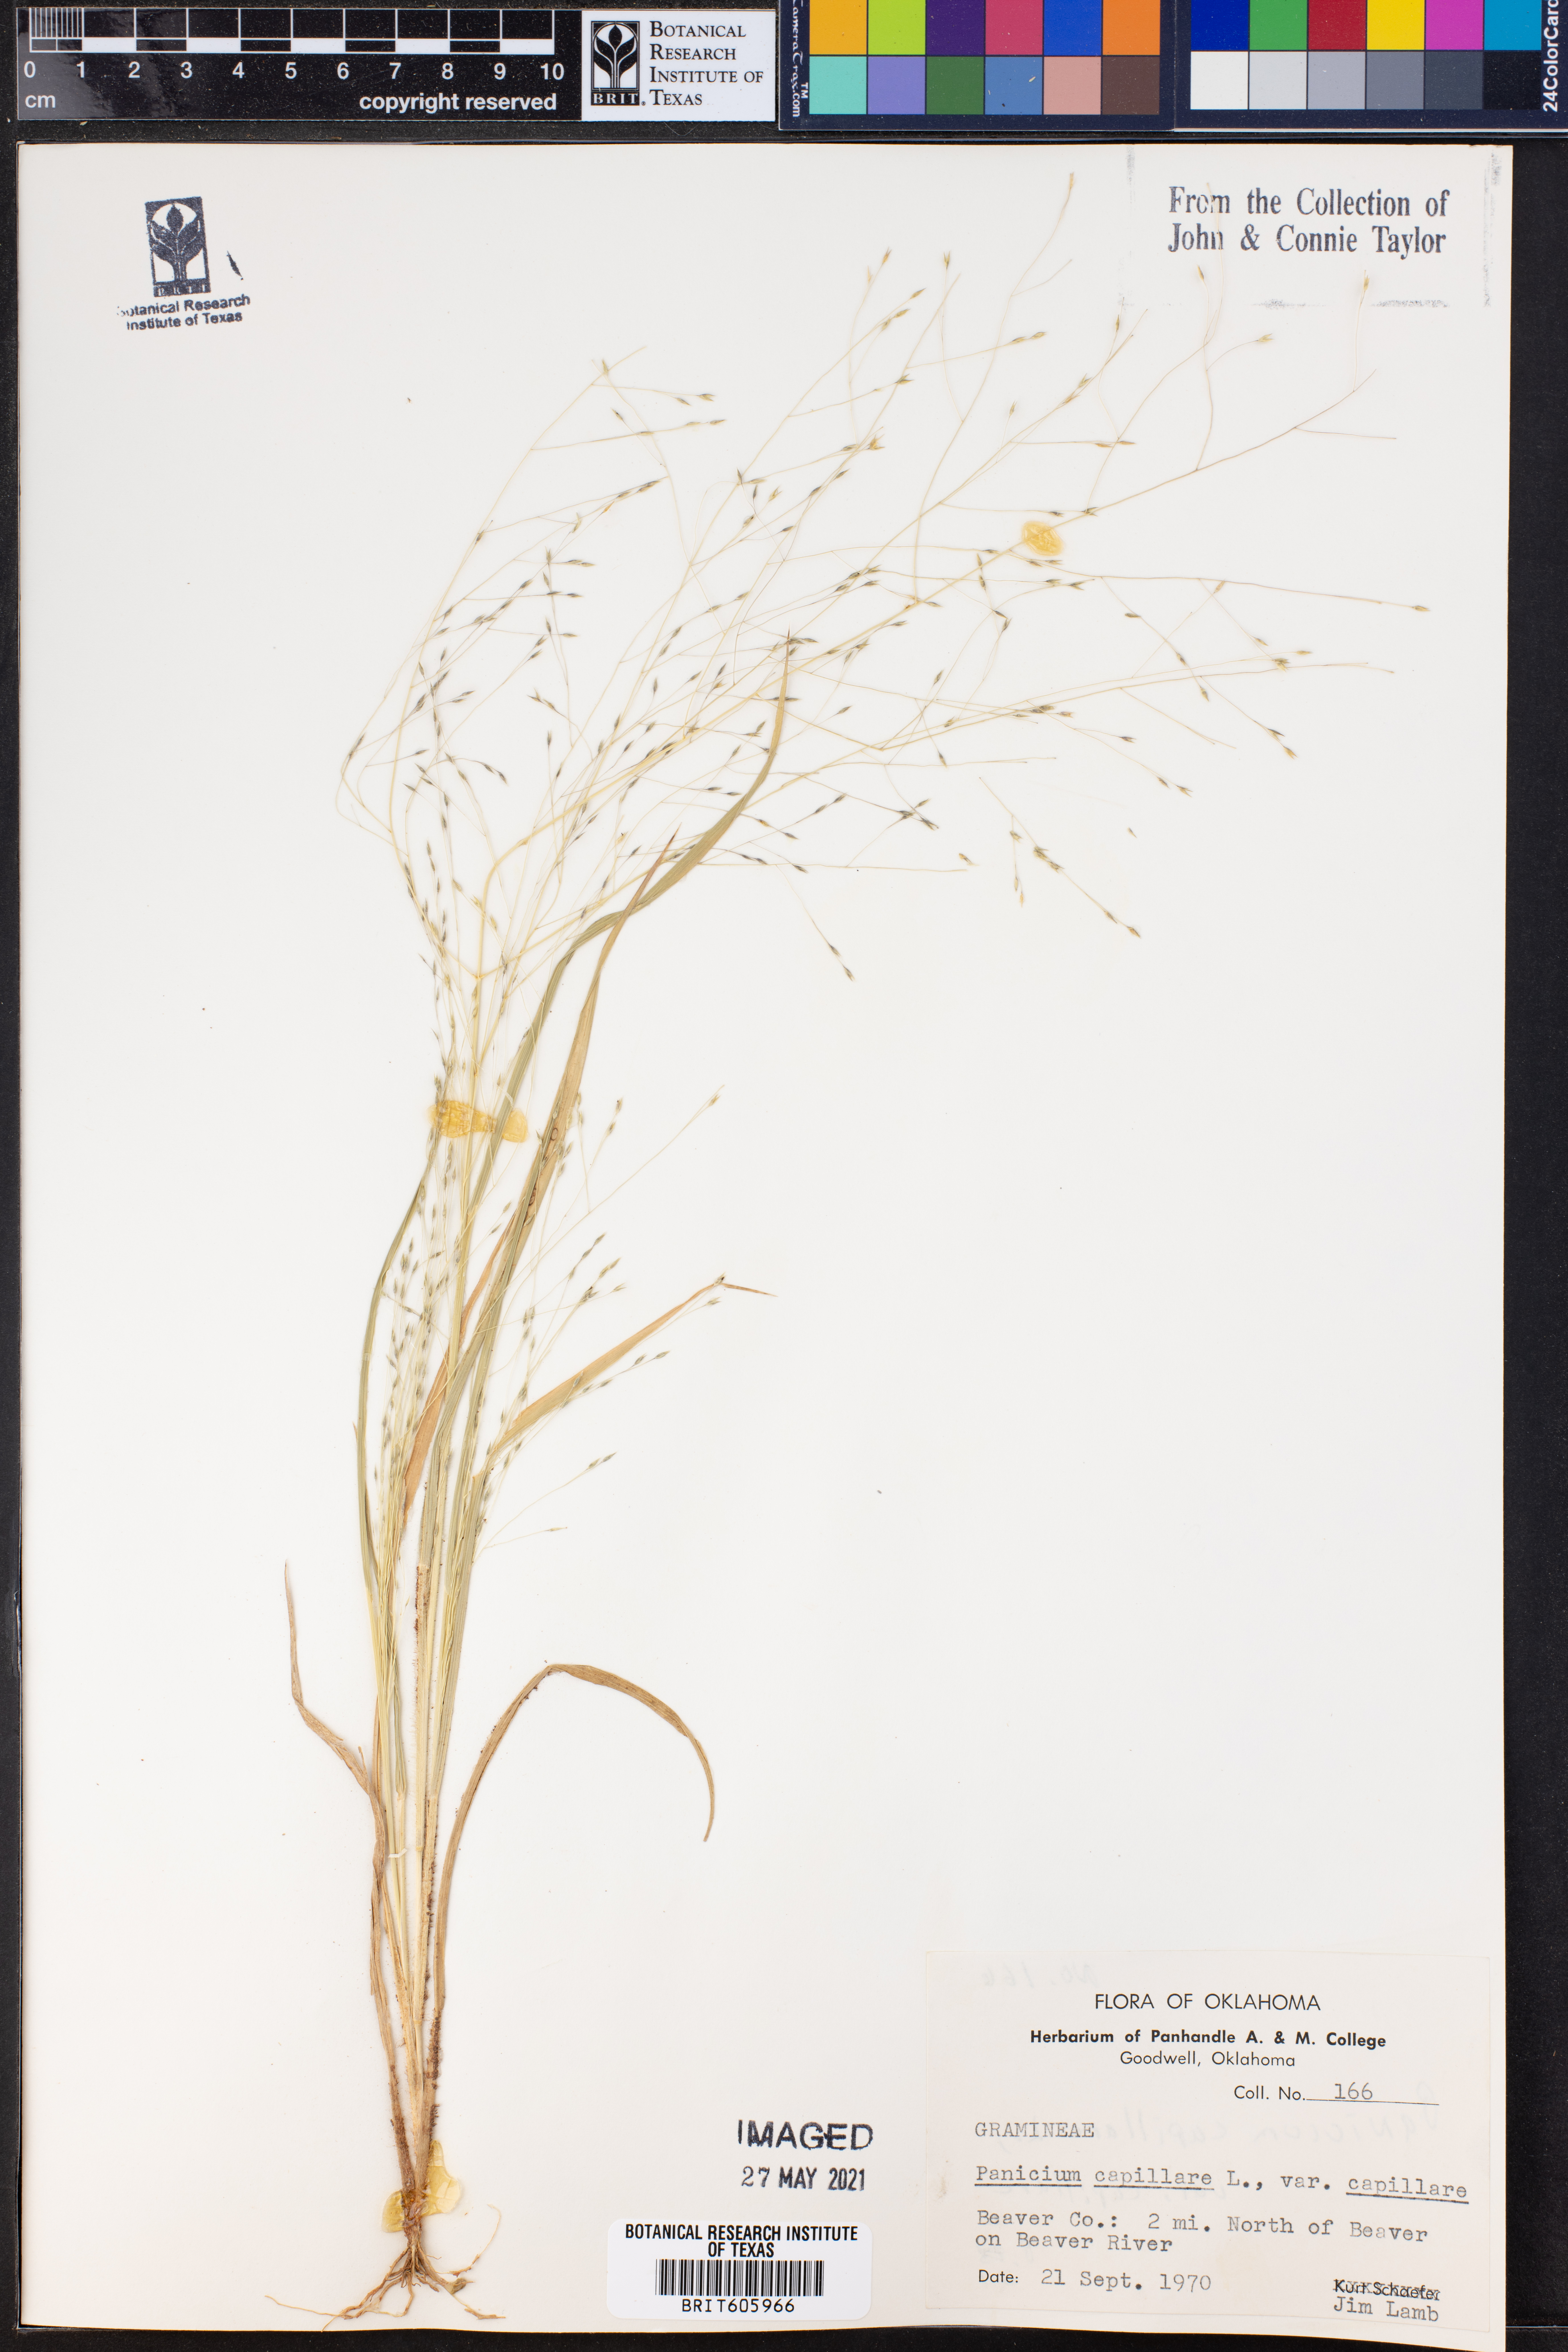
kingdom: Plantae
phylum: Tracheophyta
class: Liliopsida
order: Poales
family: Poaceae
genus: Panicum
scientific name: Panicum capillare
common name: Witch-grass
